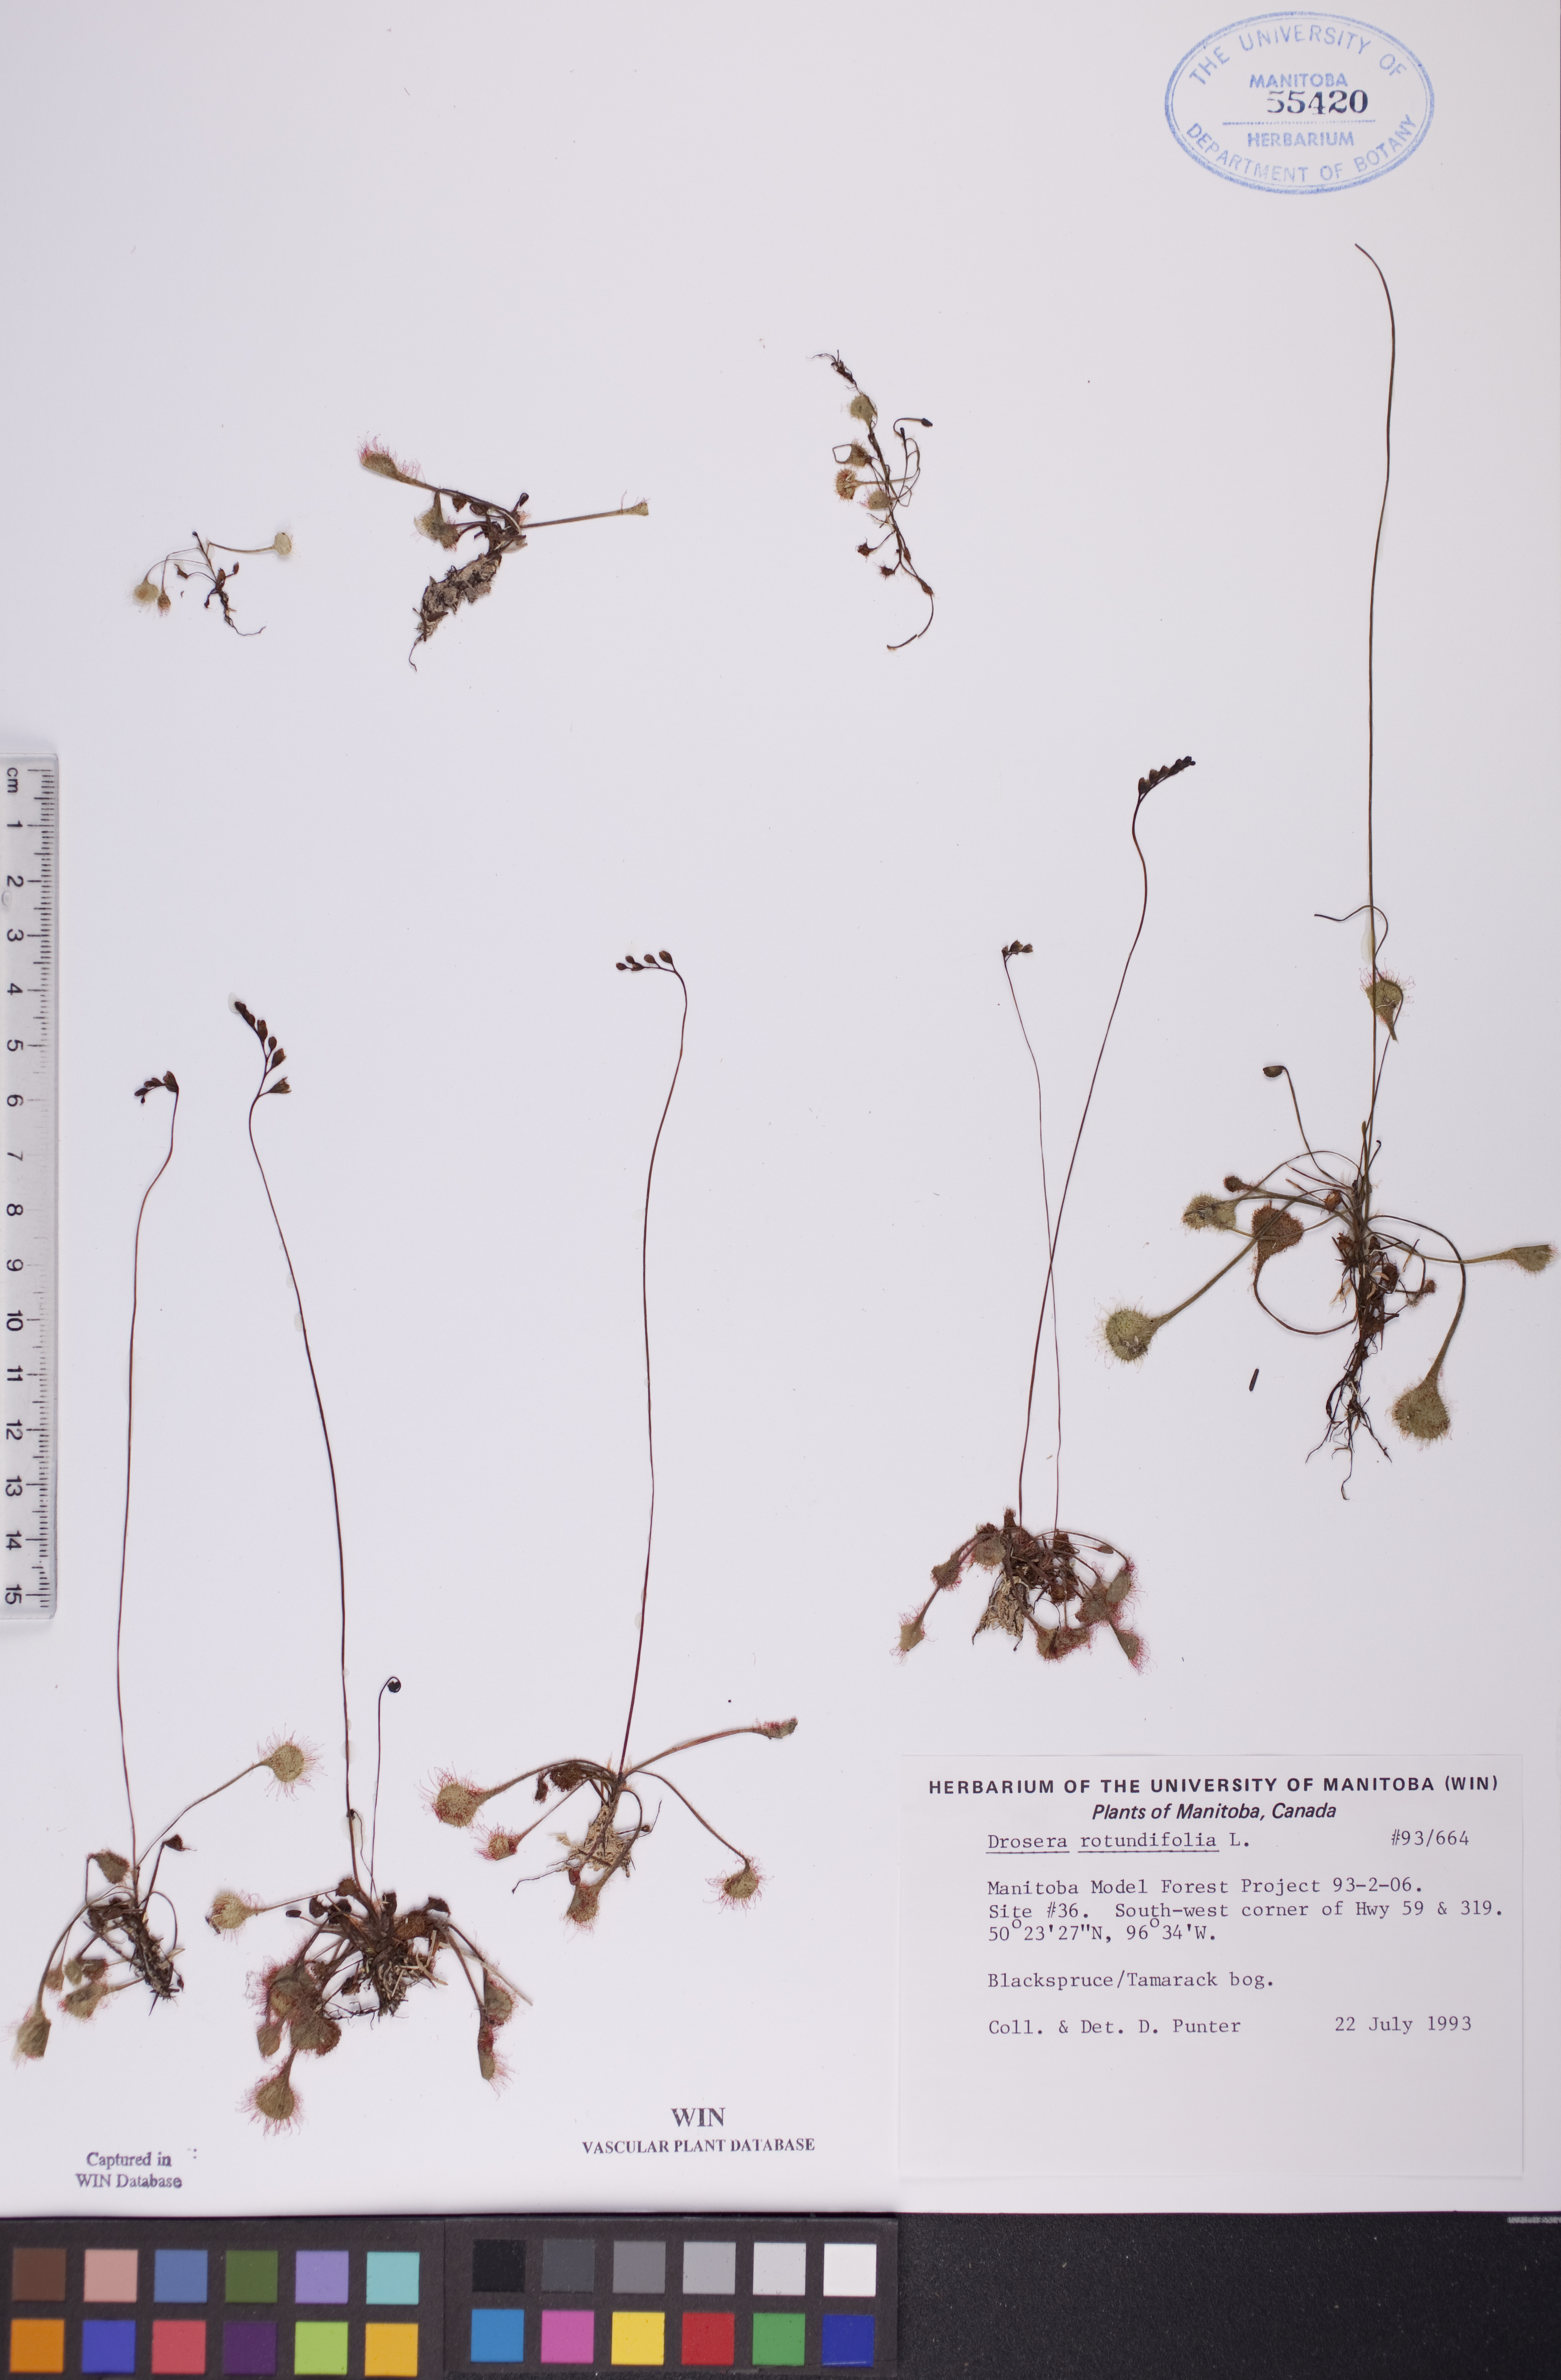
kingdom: Plantae
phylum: Tracheophyta
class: Magnoliopsida
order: Caryophyllales
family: Droseraceae
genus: Drosera
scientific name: Drosera rotundifolia
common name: Round-leaved sundew
